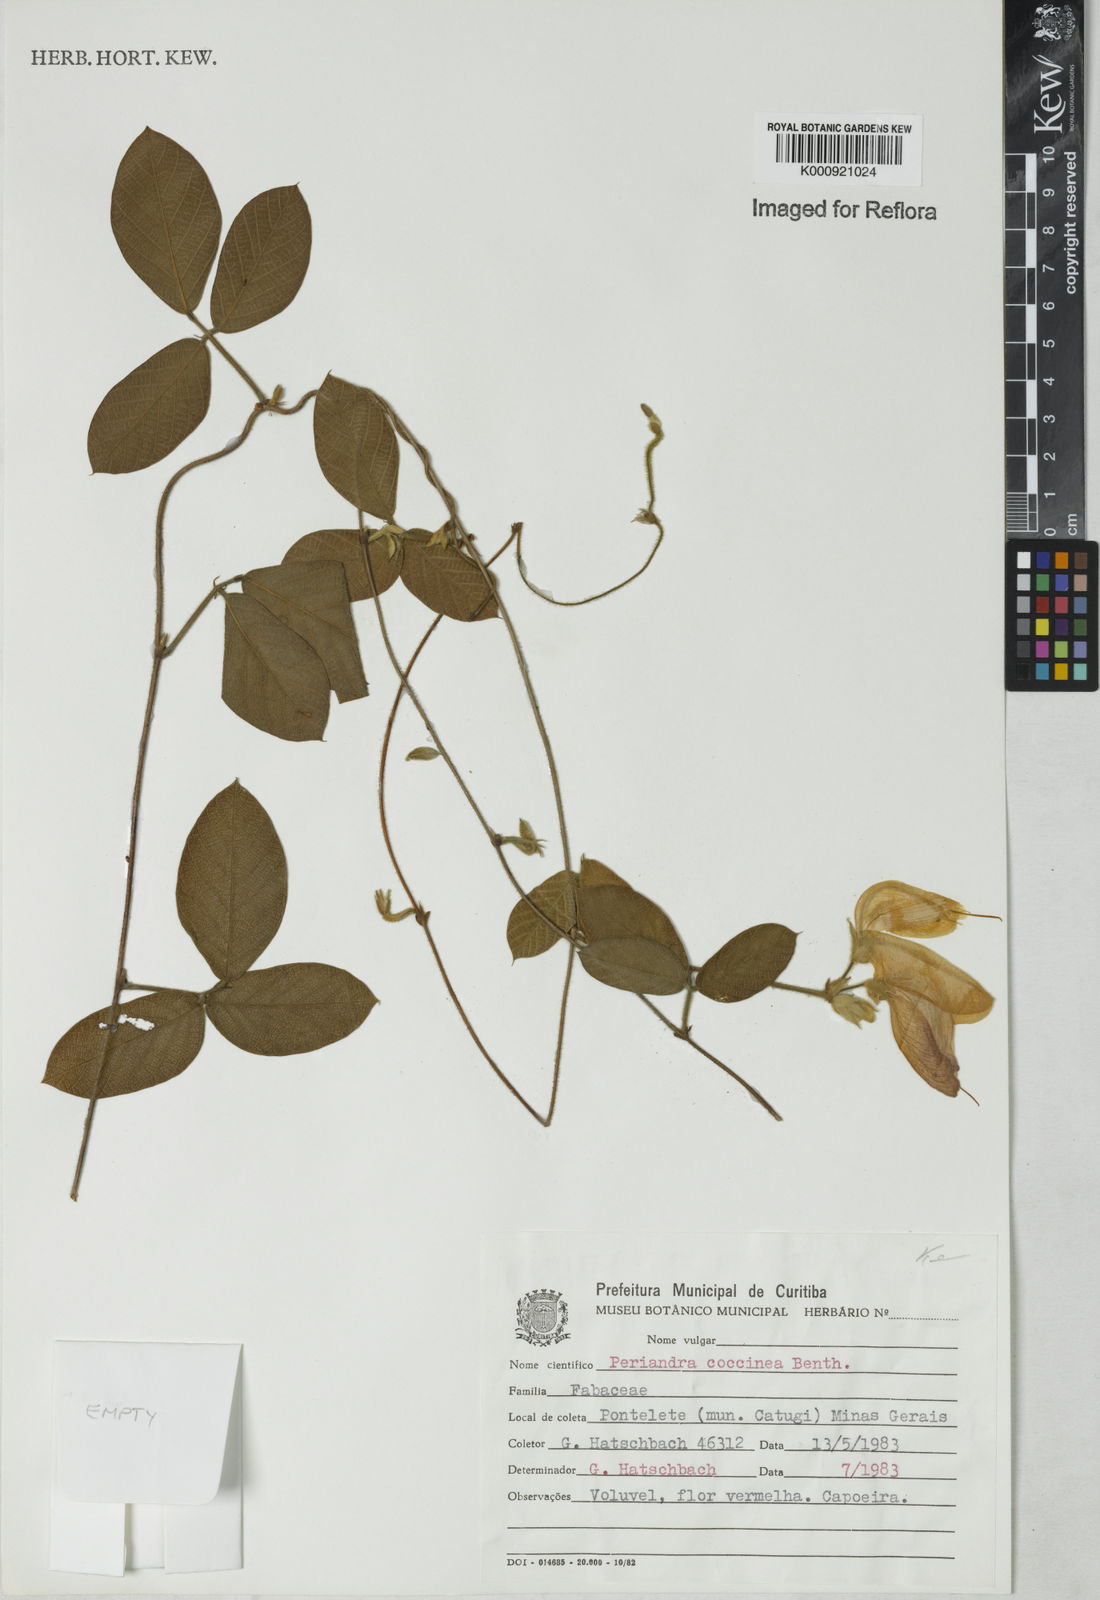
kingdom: Plantae
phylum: Tracheophyta
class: Magnoliopsida
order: Fabales
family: Fabaceae
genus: Periandra
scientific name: Periandra coccinea
